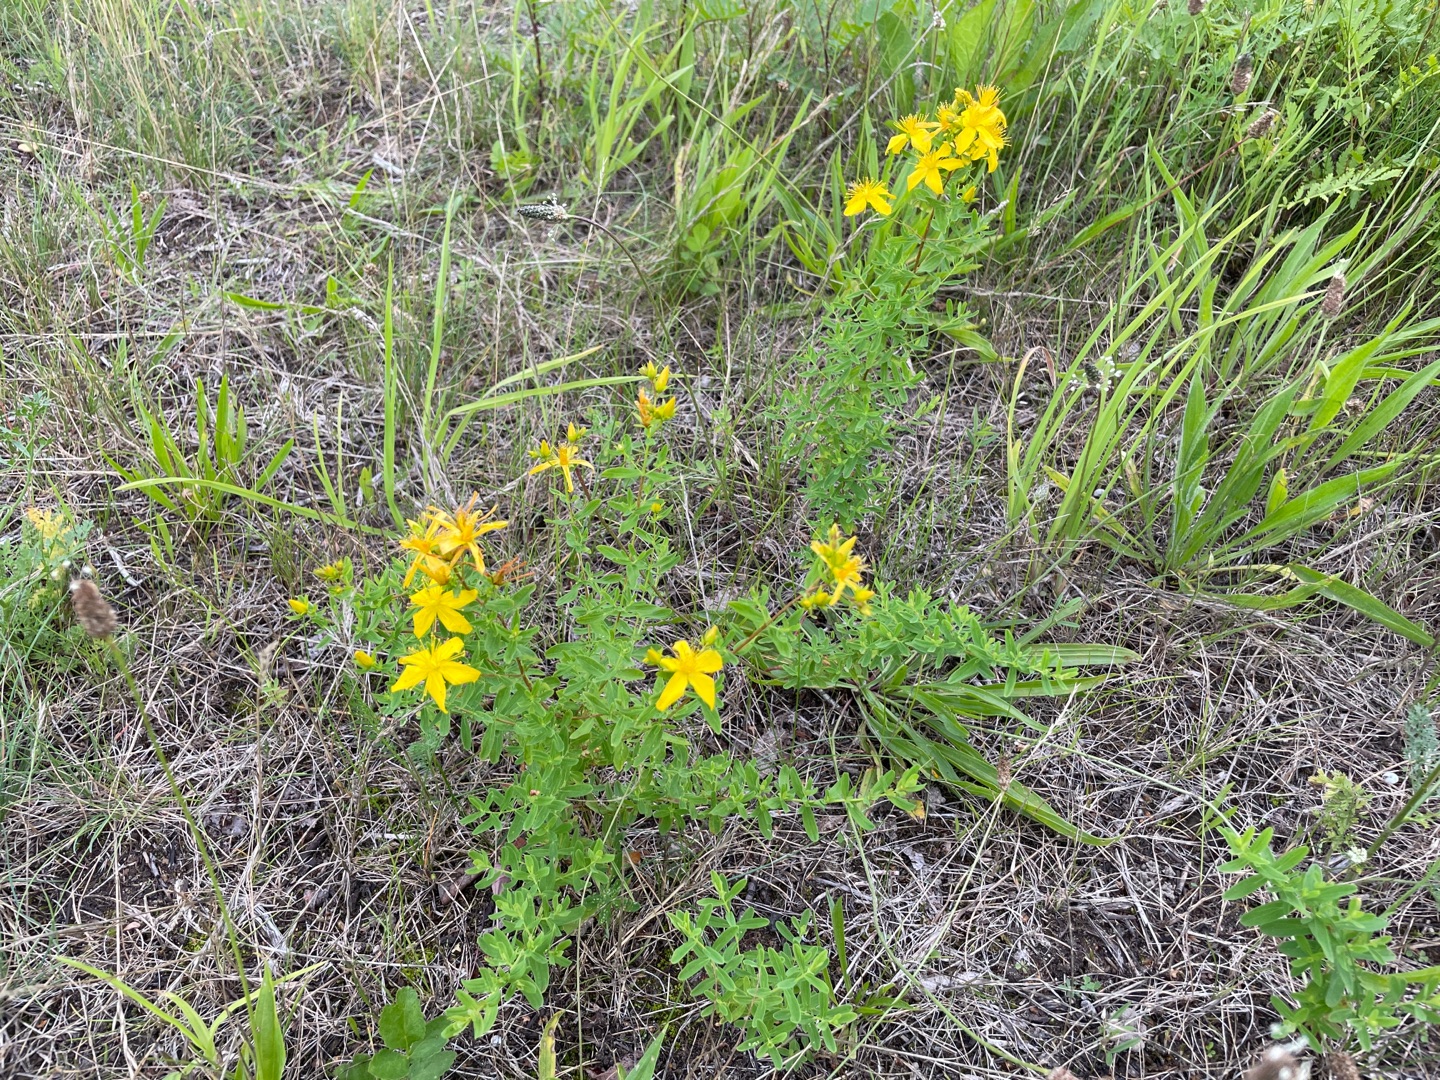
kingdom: Plantae
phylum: Tracheophyta
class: Magnoliopsida
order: Malpighiales
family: Hypericaceae
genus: Hypericum
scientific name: Hypericum perforatum
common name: Prikbladet perikon
